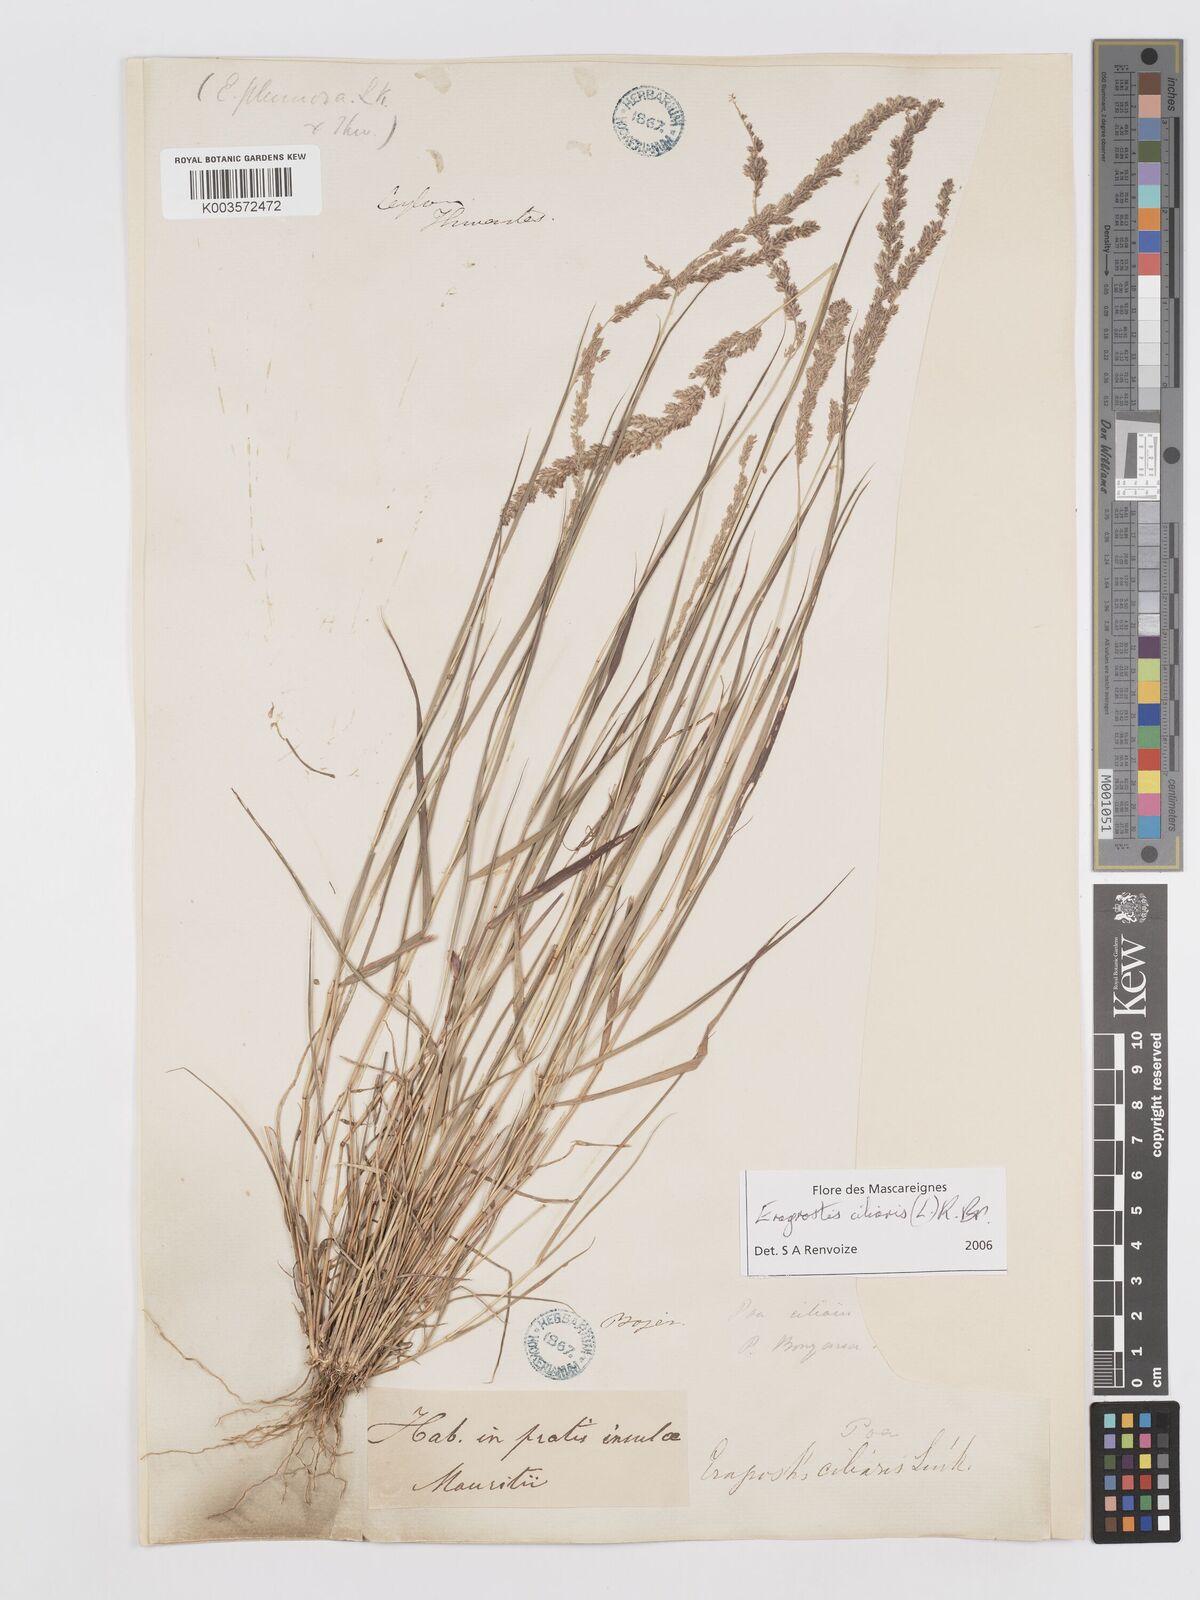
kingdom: Plantae
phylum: Tracheophyta
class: Liliopsida
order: Poales
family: Poaceae
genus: Eragrostis
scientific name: Eragrostis ciliaris
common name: Gophertail lovegrass
